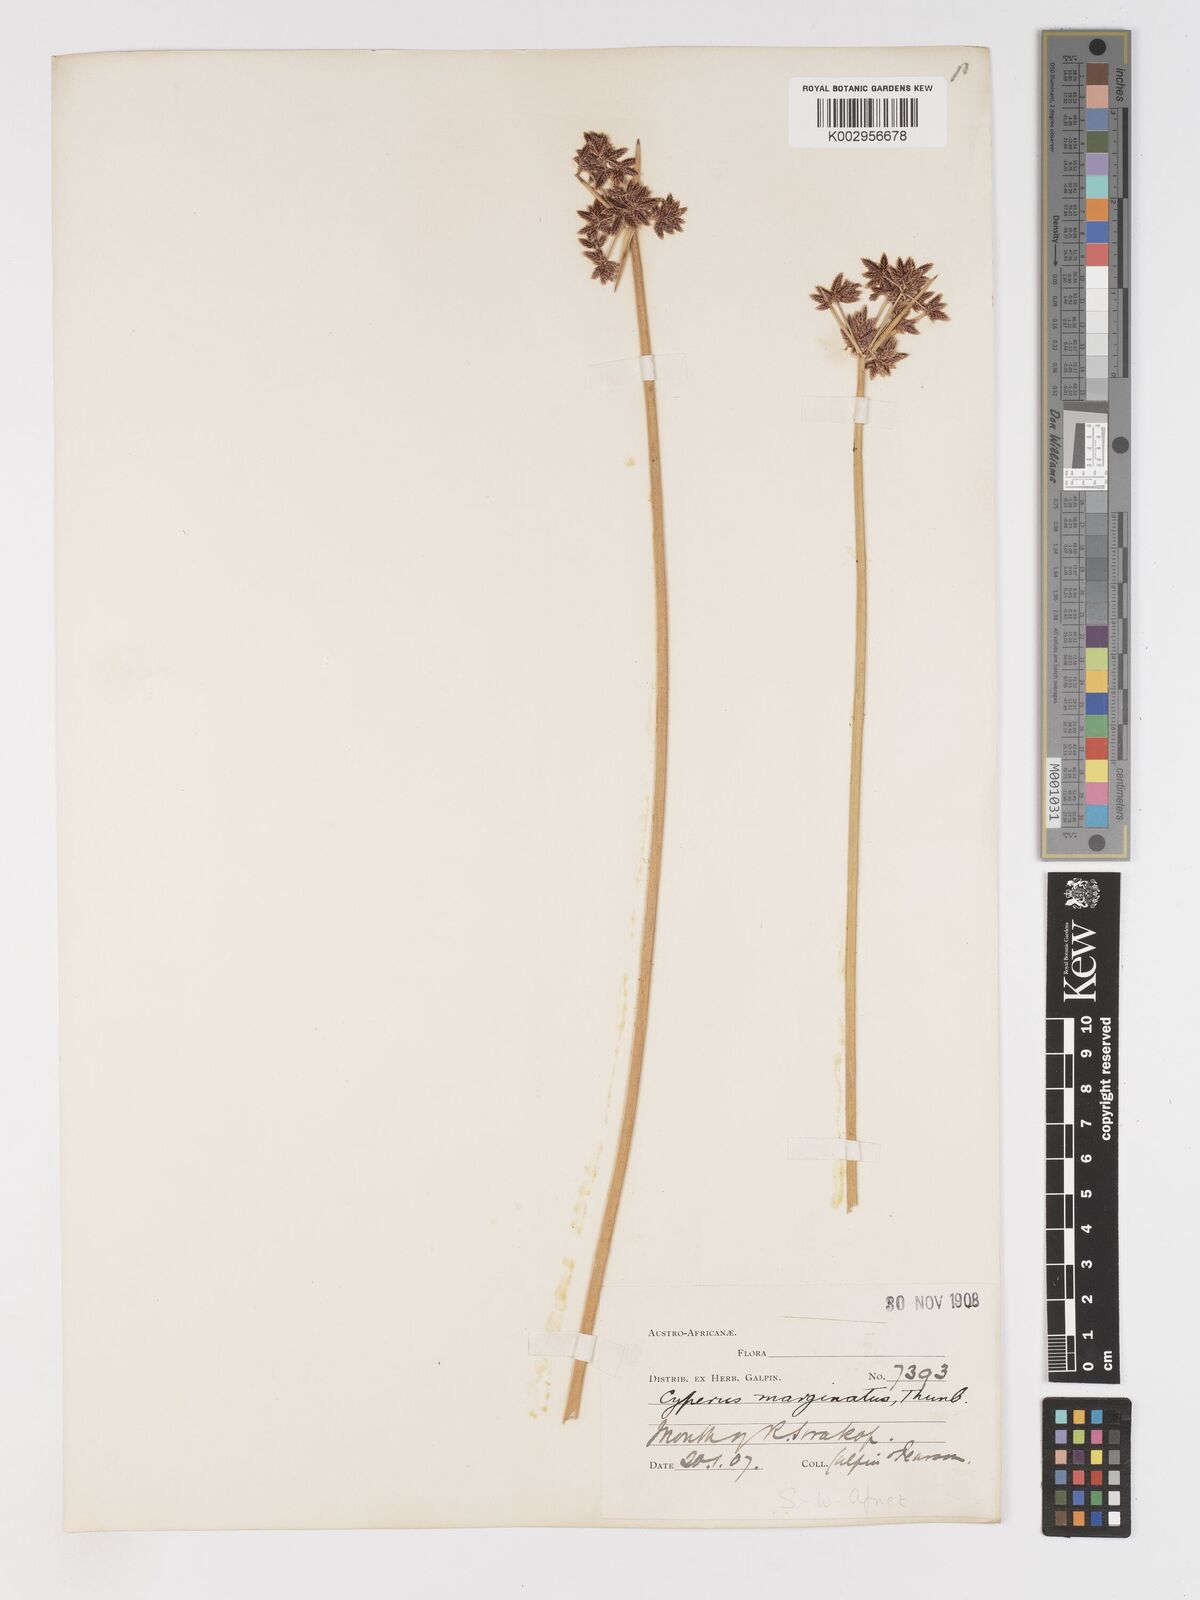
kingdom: Plantae
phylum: Tracheophyta
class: Liliopsida
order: Poales
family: Cyperaceae
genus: Cyperus
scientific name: Cyperus marginatus
